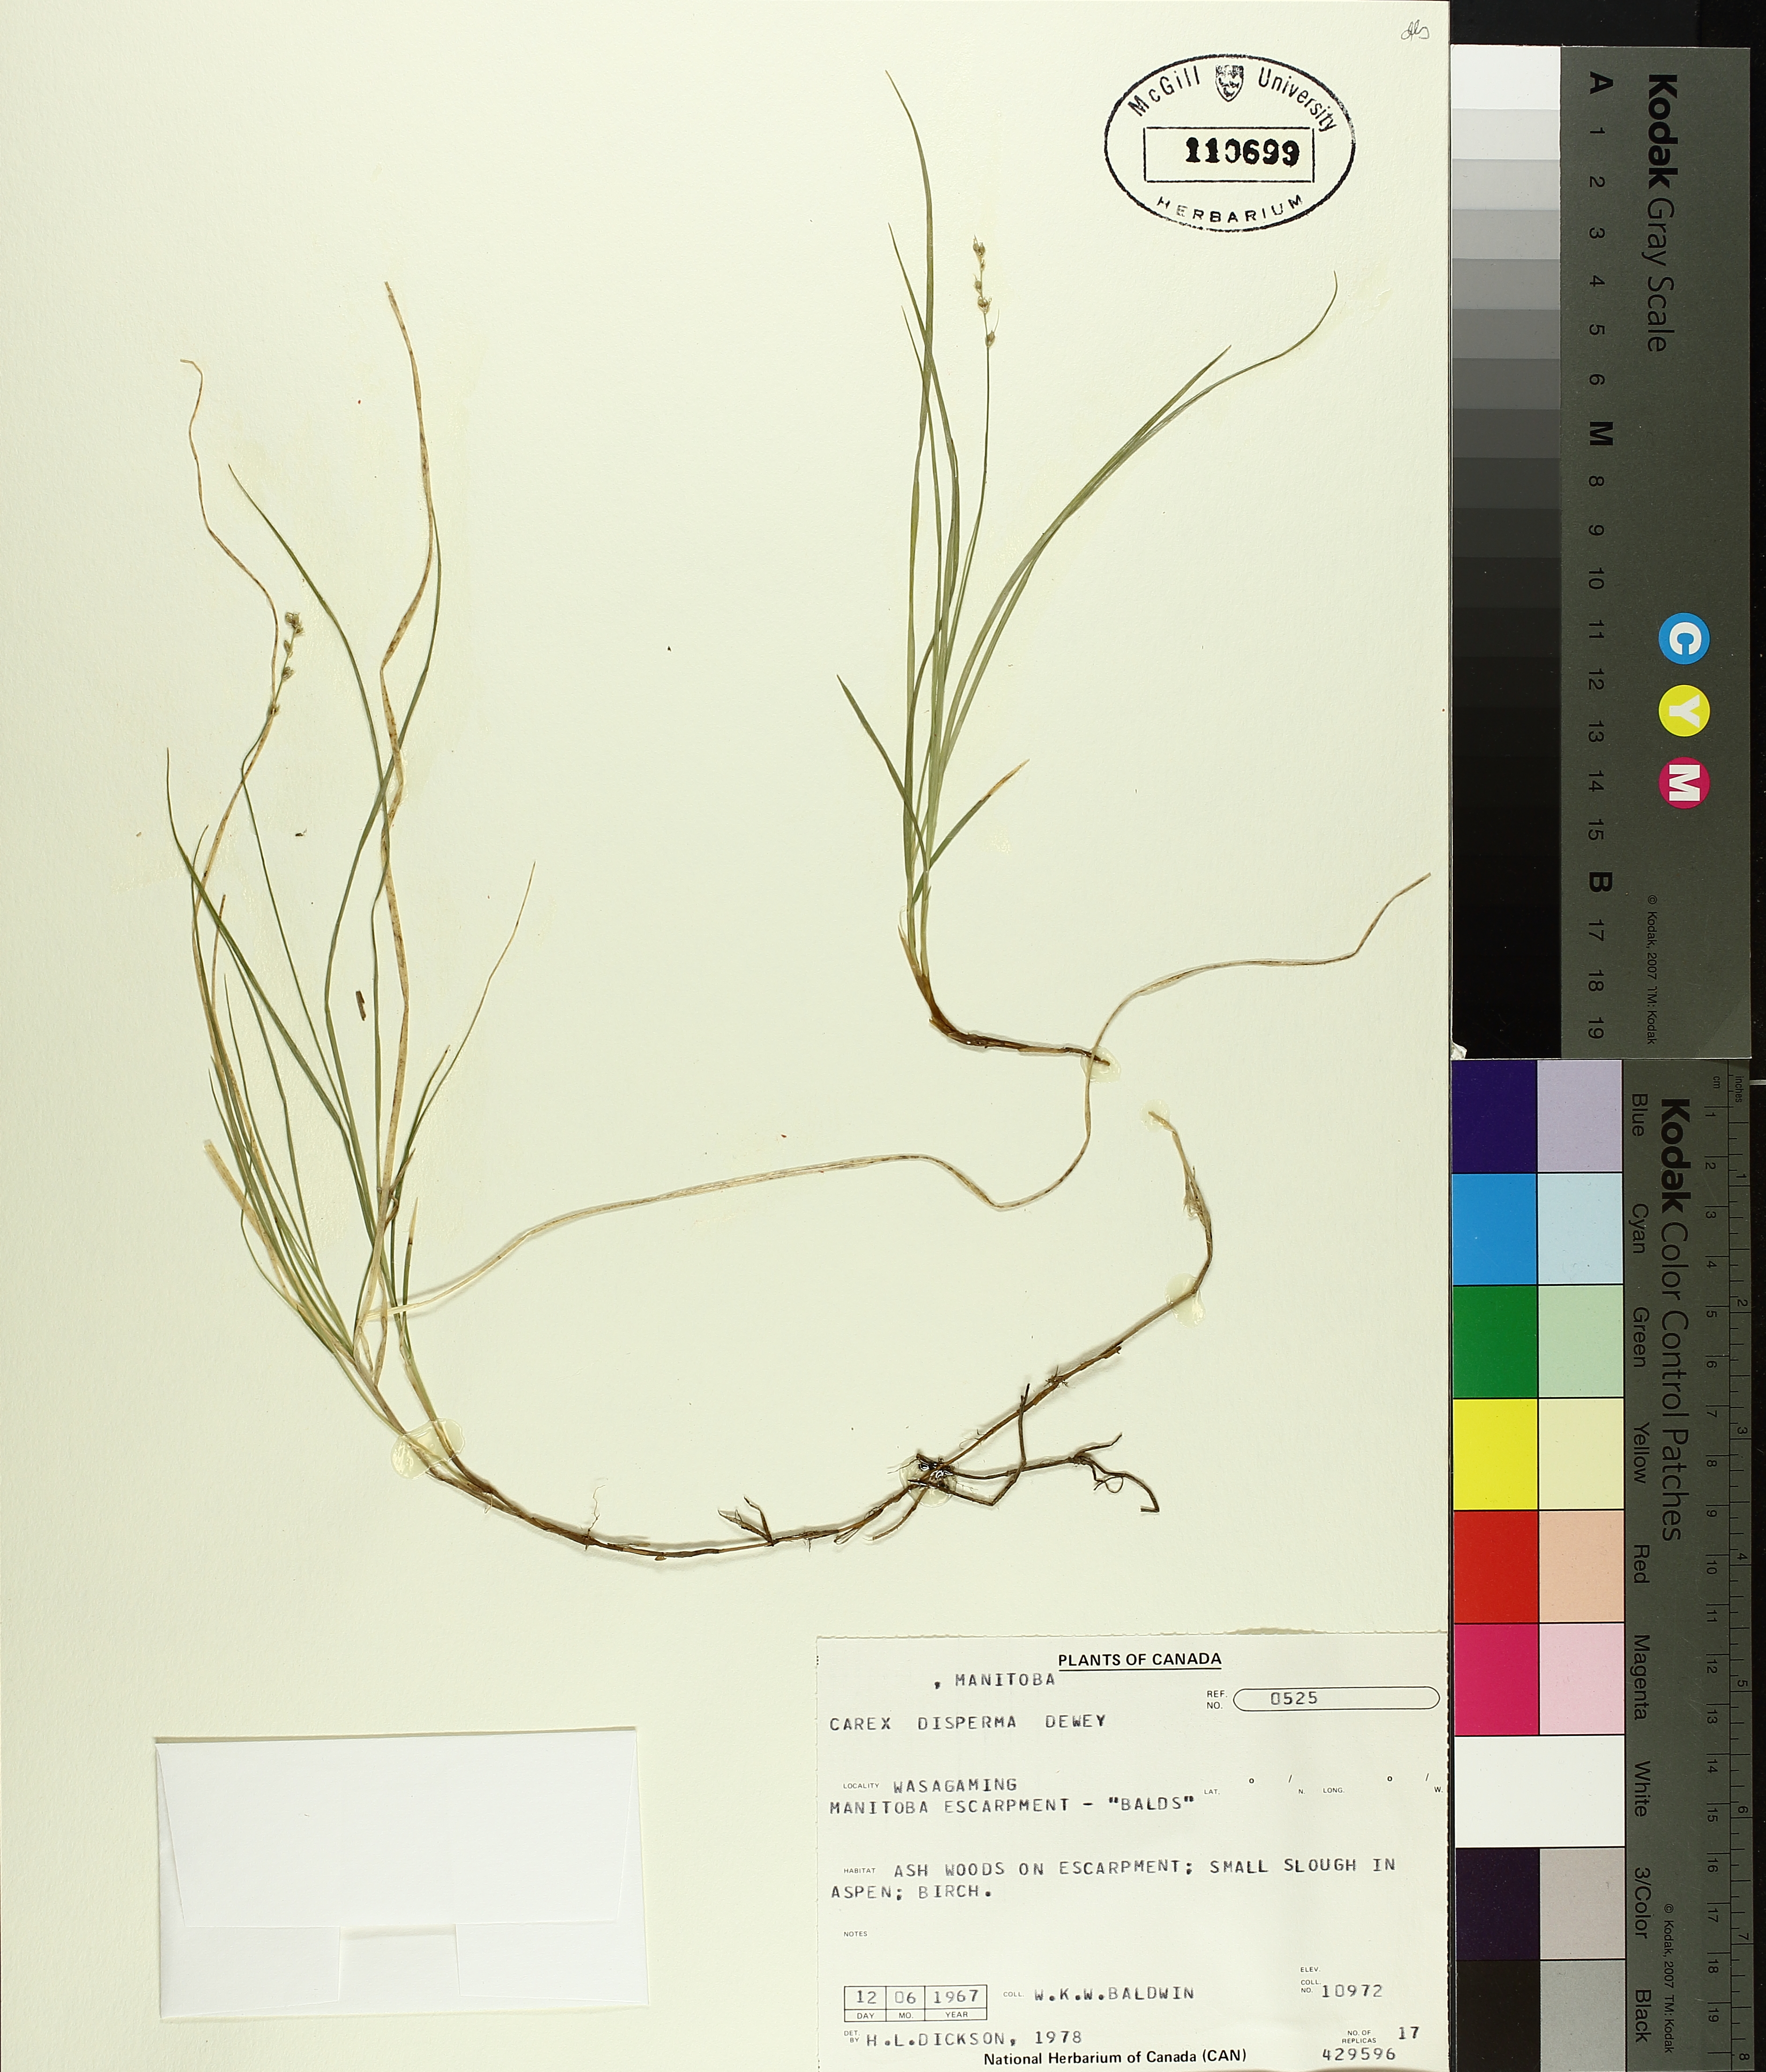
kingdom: Plantae
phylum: Tracheophyta
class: Liliopsida
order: Poales
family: Cyperaceae
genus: Carex
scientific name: Carex disperma
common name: Short-leaved sedge
